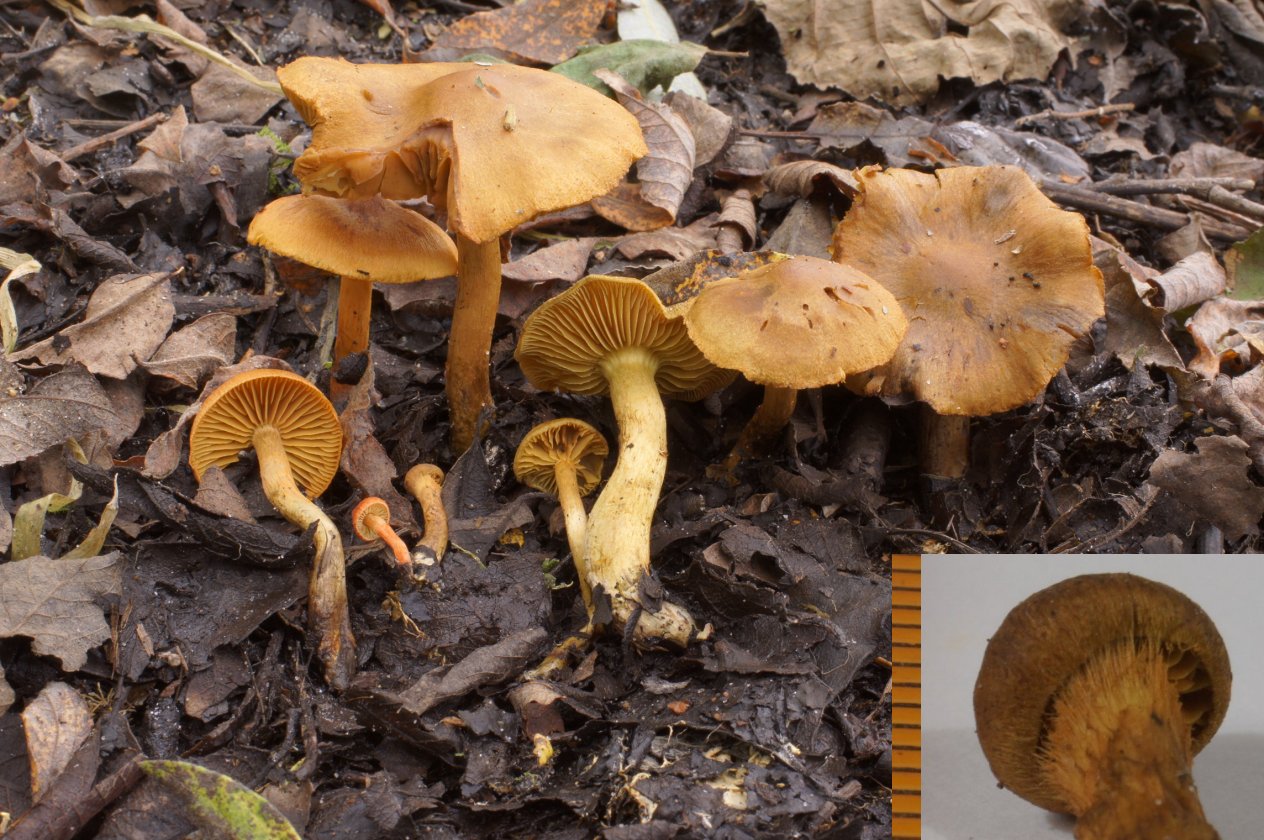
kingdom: Fungi
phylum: Basidiomycota
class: Agaricomycetes
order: Agaricales
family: Cortinariaceae
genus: Cortinarius
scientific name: Cortinarius uliginosus
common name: mose-slørhat
